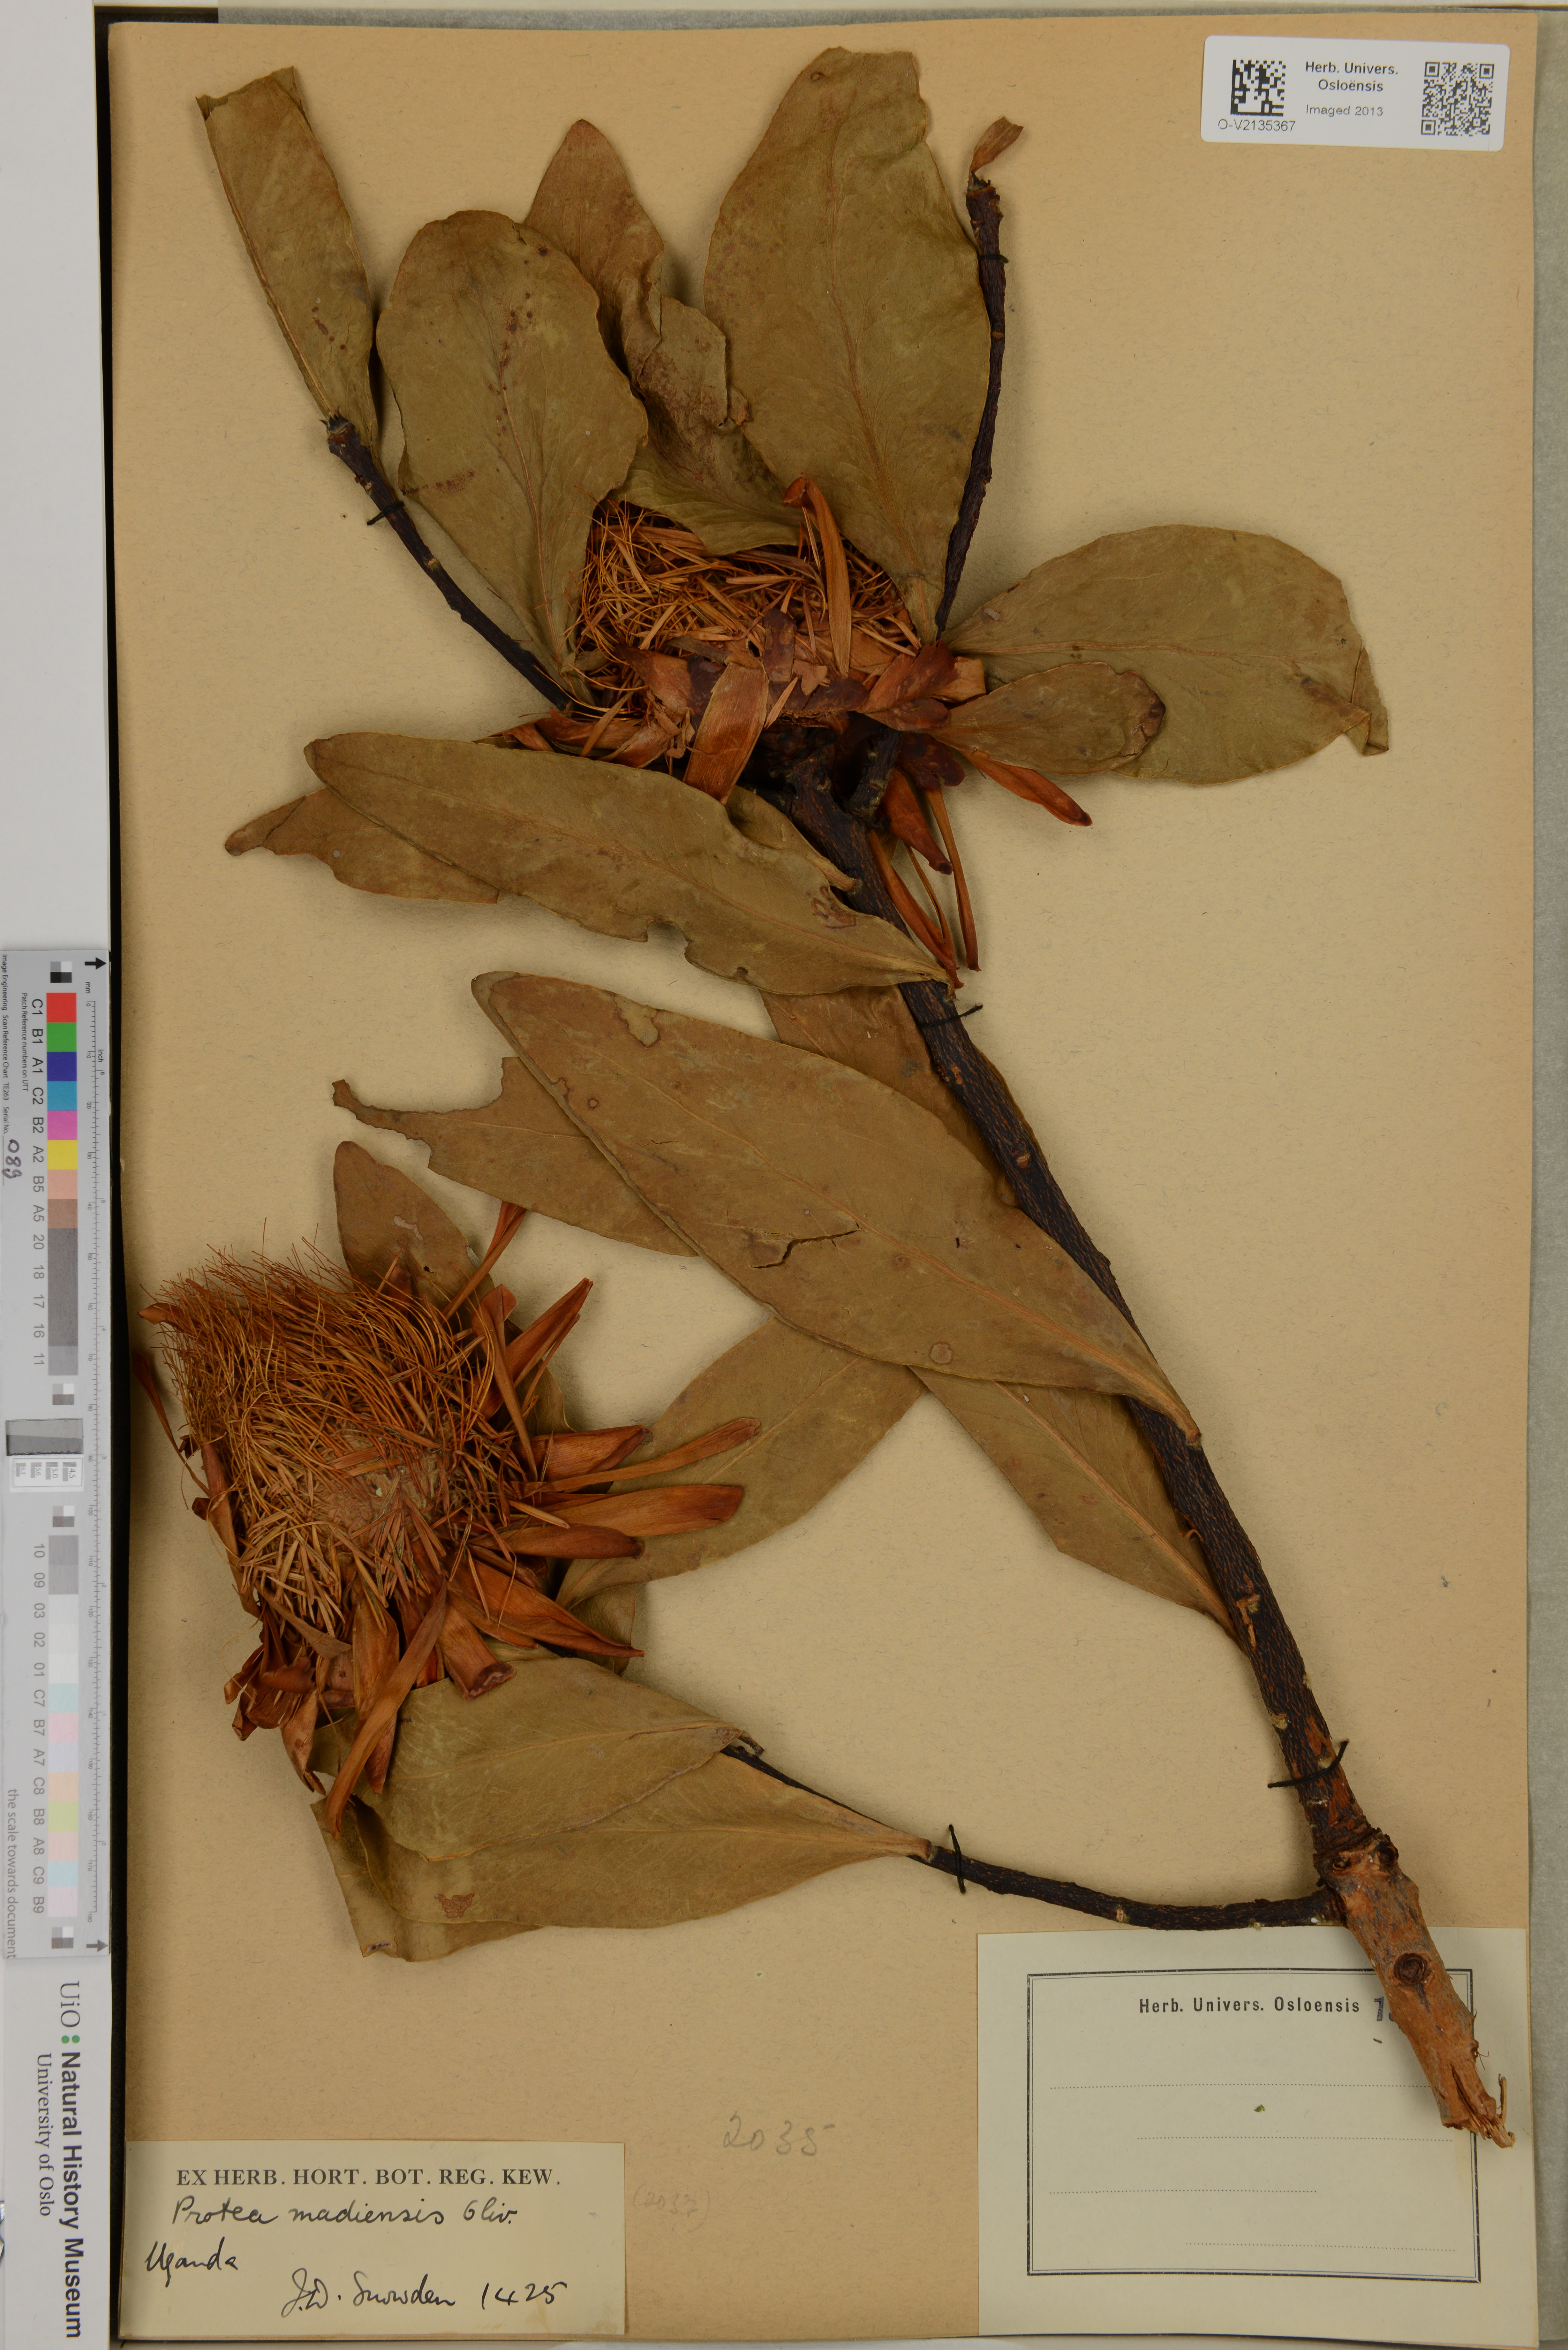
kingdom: Plantae
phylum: Tracheophyta
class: Magnoliopsida
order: Proteales
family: Proteaceae
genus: Protea
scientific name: Protea madiensis
